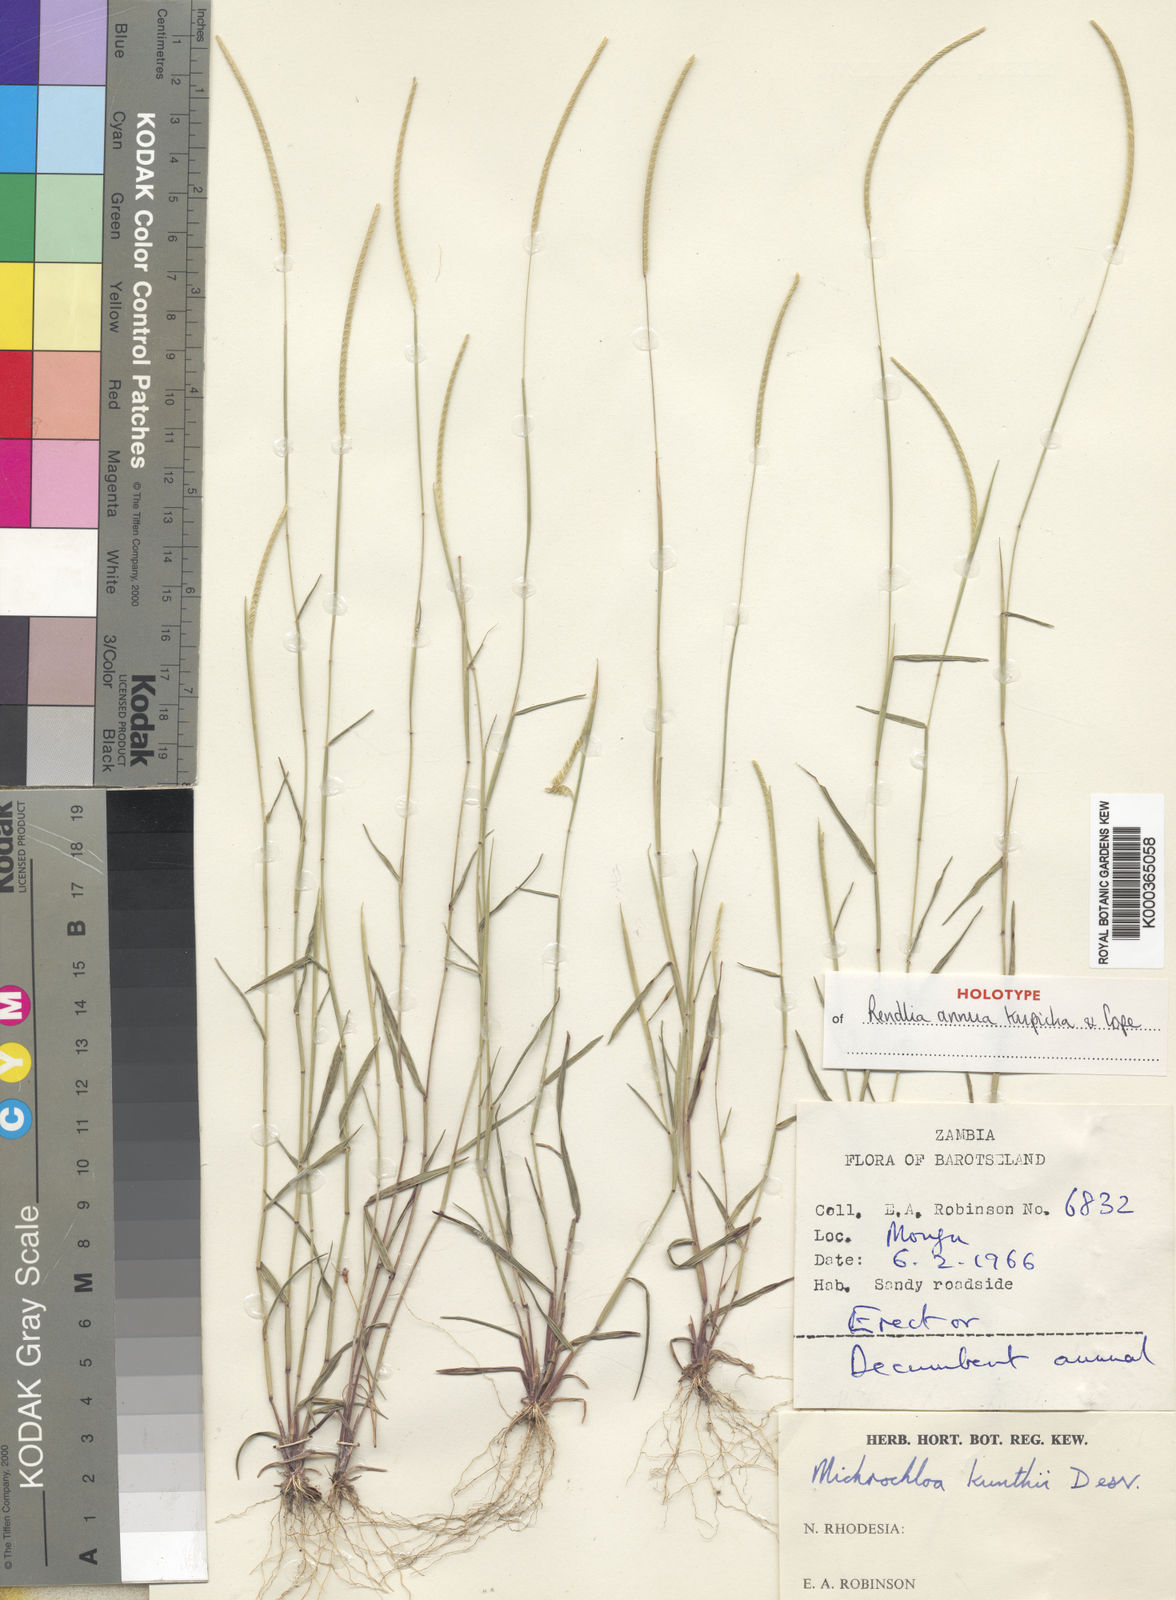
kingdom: Plantae
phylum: Tracheophyta
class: Liliopsida
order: Poales
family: Poaceae
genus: Microchloa
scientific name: Microchloa kunthii
